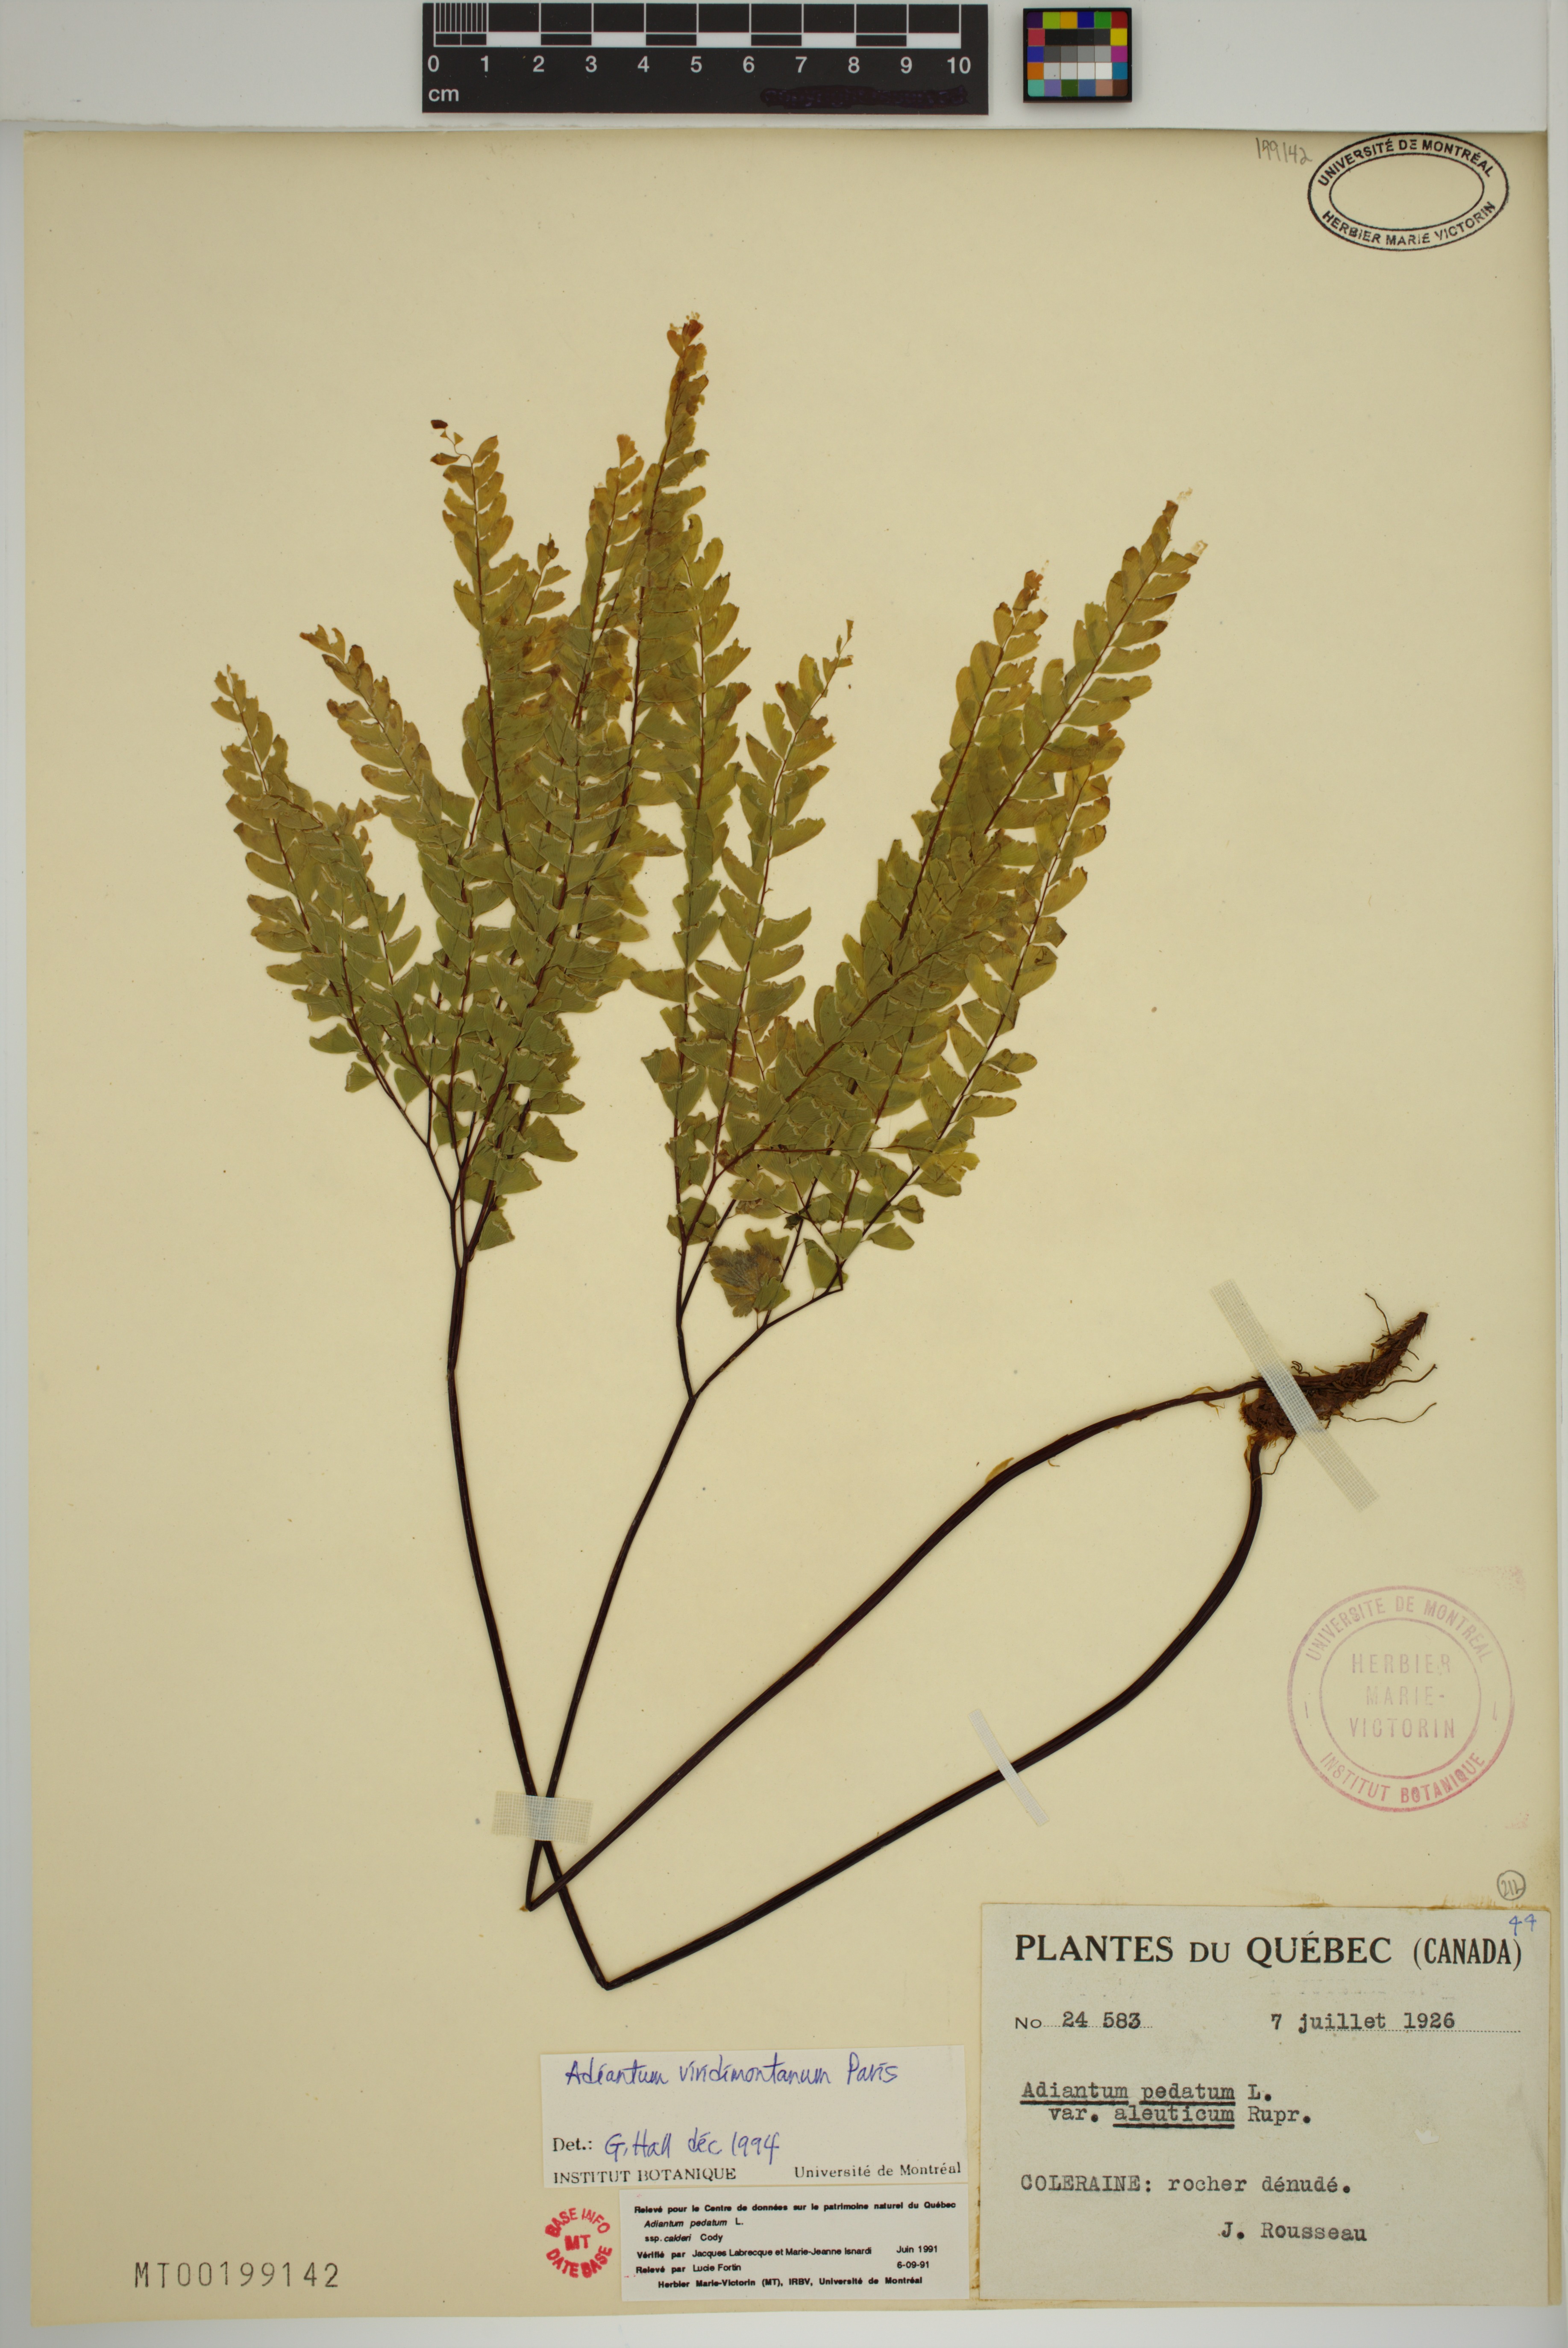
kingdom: Plantae
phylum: Tracheophyta
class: Polypodiopsida
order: Polypodiales
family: Pteridaceae
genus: Adiantum
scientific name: Adiantum viridimontanum
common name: Green mountain maidenhair
